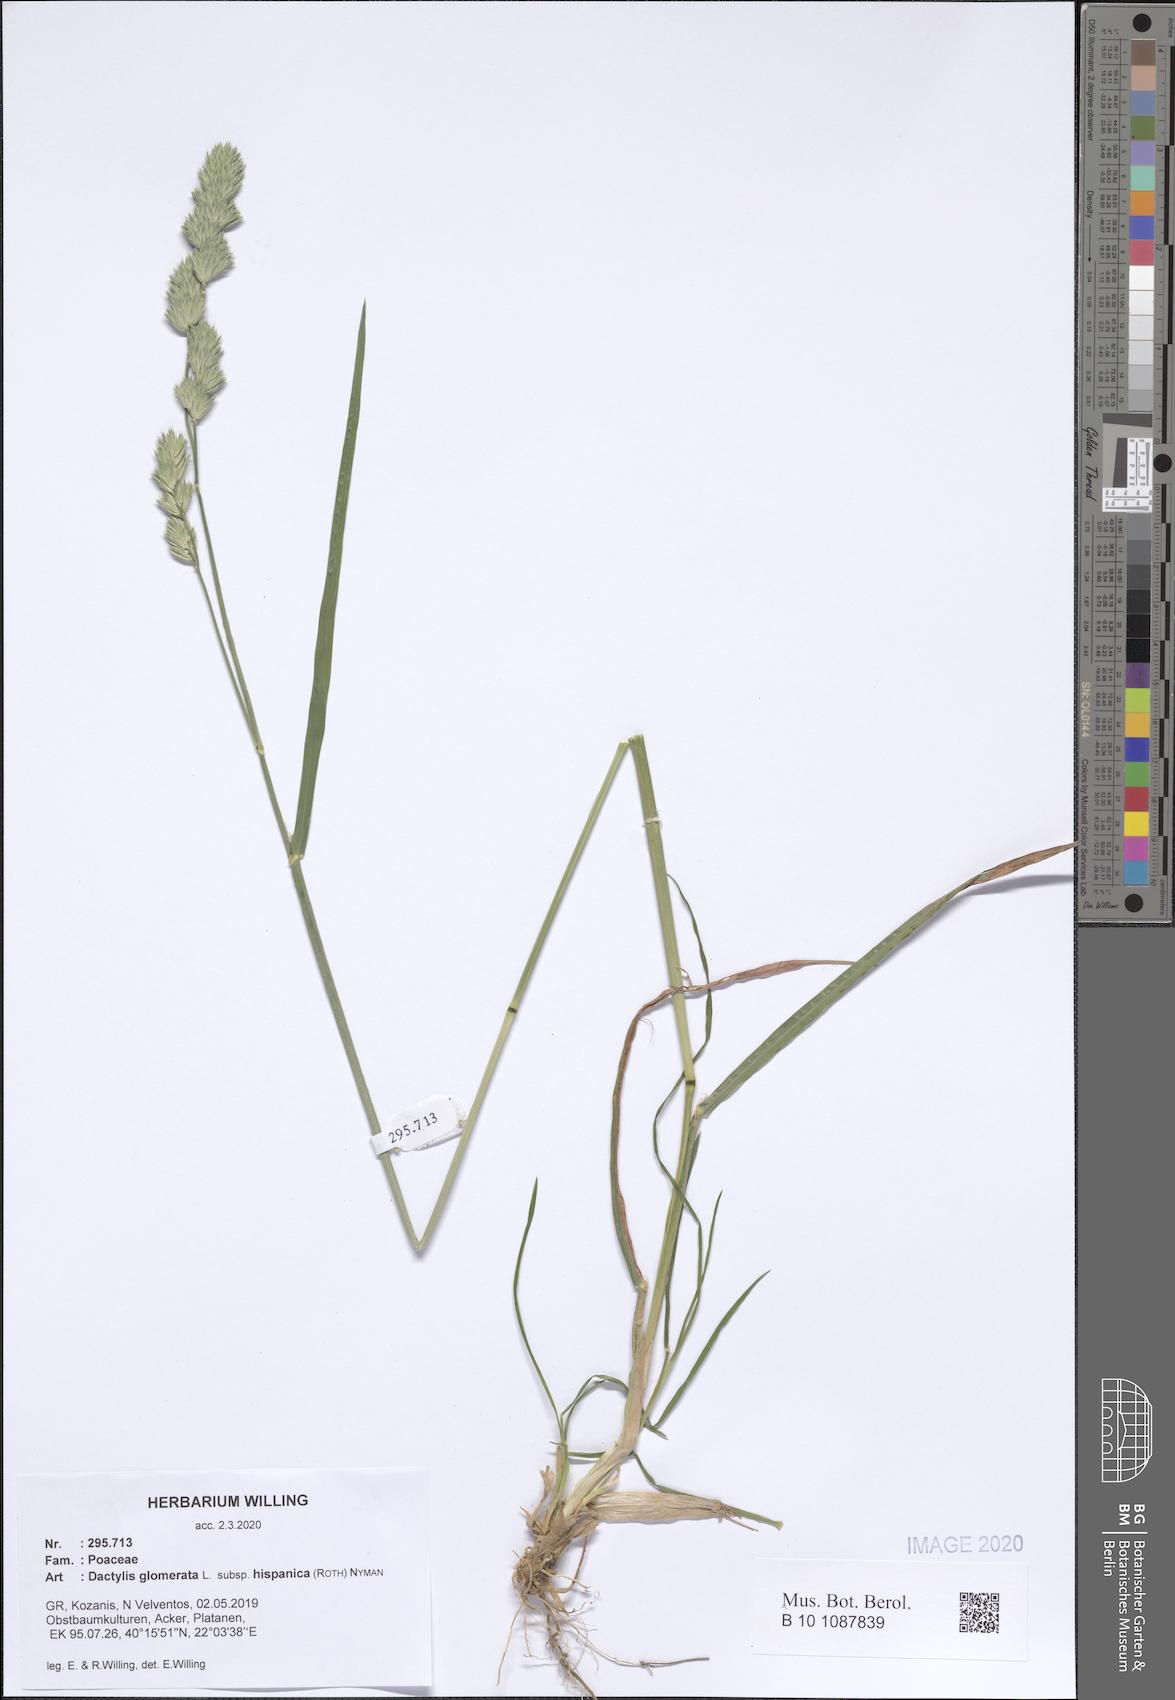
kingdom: Plantae
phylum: Tracheophyta
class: Liliopsida
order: Poales
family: Poaceae
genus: Dactylis
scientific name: Dactylis glomerata
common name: Orchardgrass
